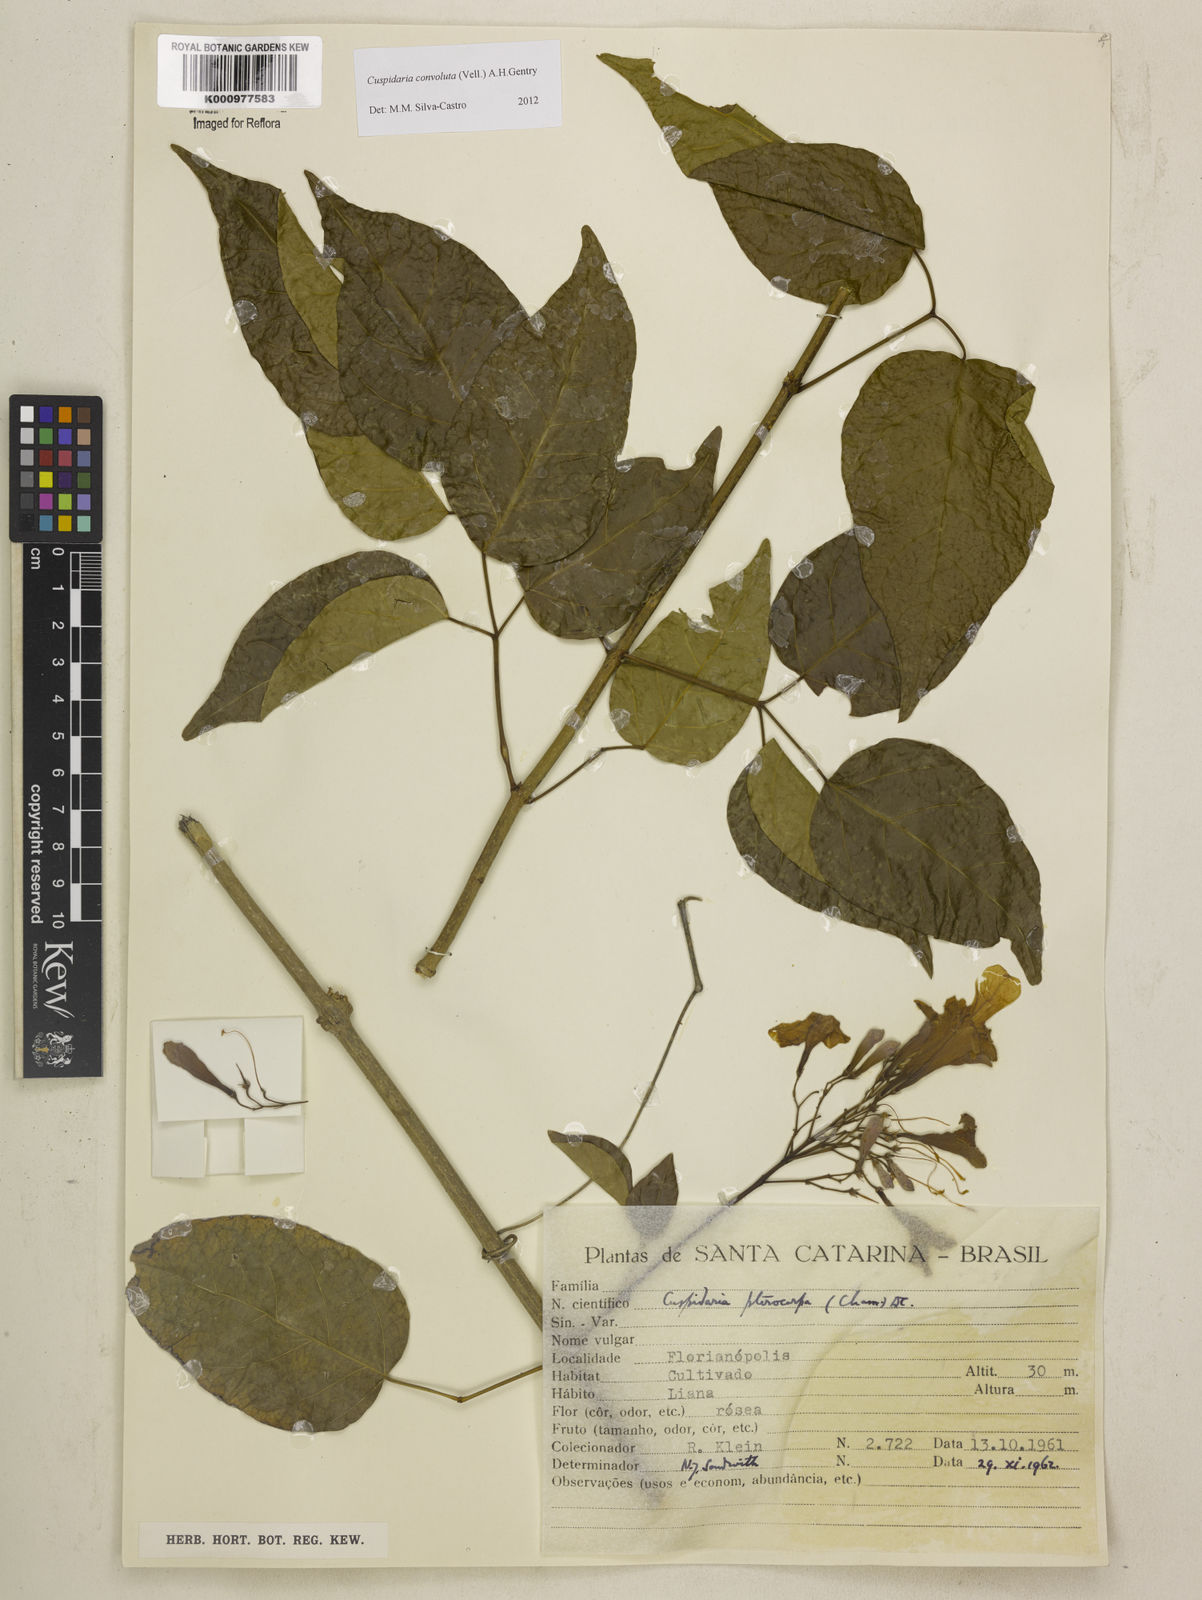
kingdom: Plantae
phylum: Tracheophyta
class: Magnoliopsida
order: Lamiales
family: Bignoniaceae
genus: Cuspidaria
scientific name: Cuspidaria convoluta
